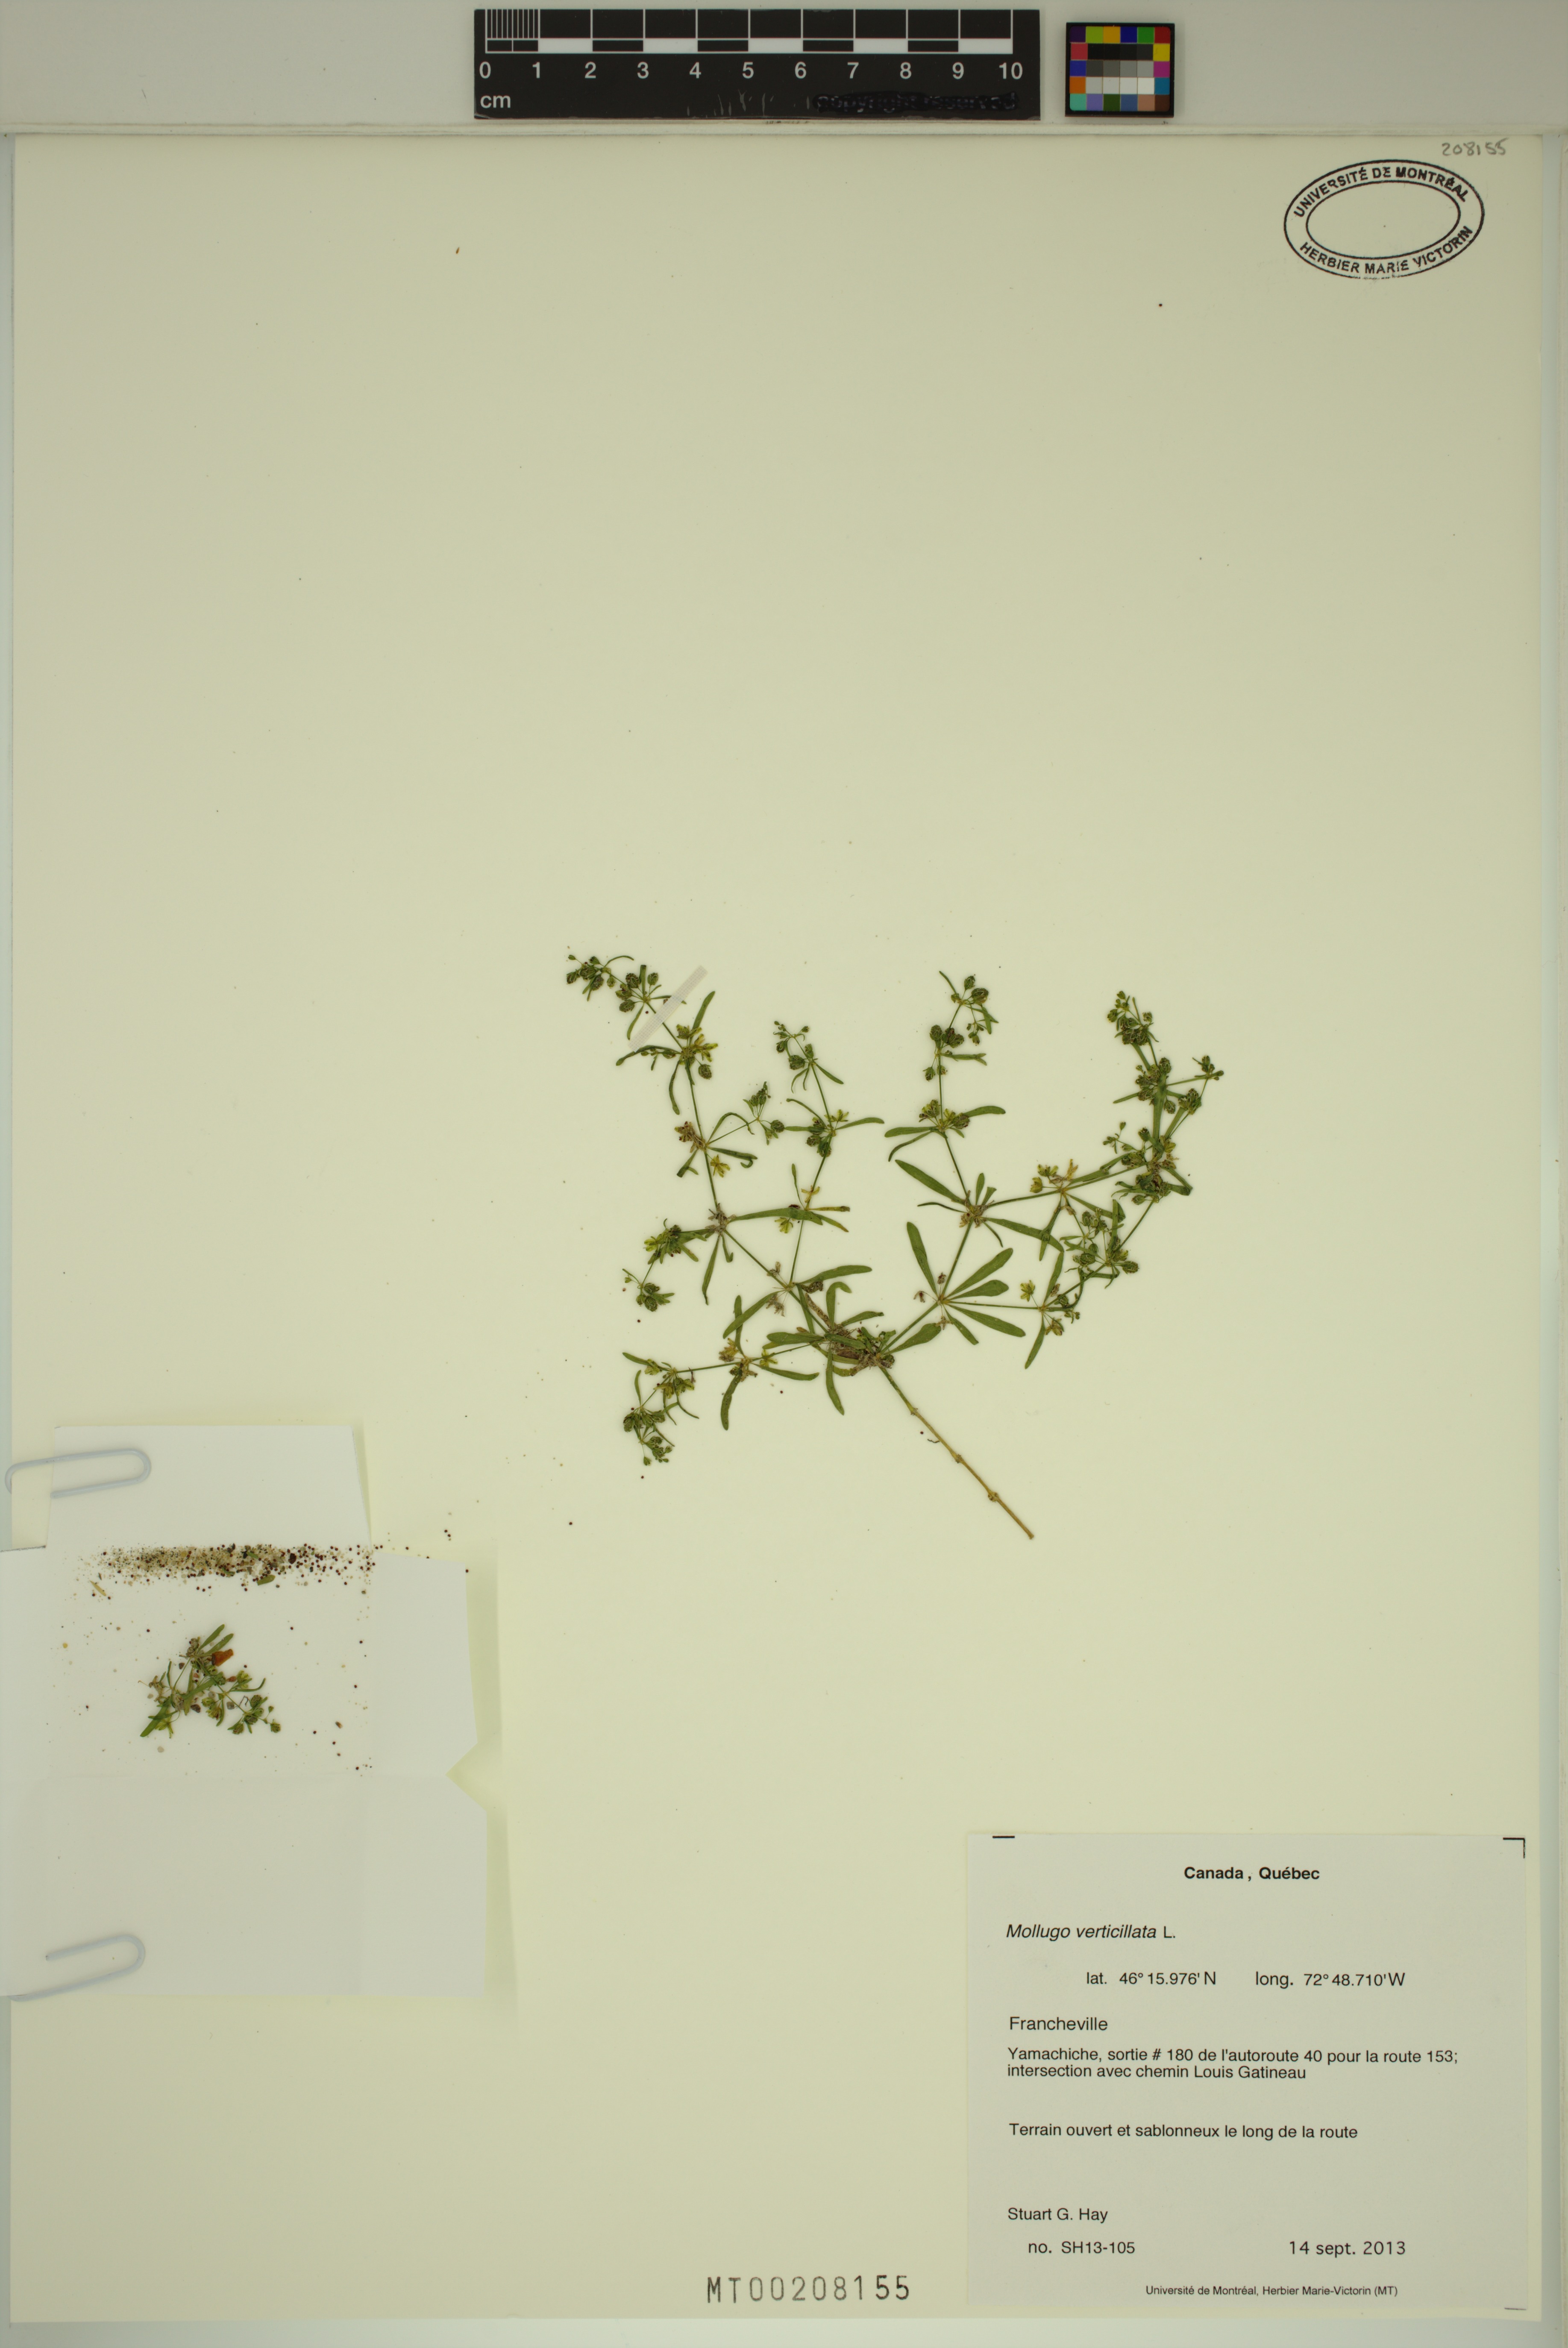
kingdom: Plantae
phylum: Tracheophyta
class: Magnoliopsida
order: Caryophyllales
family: Molluginaceae
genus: Mollugo
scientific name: Mollugo verticillata
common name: Green carpetweed
